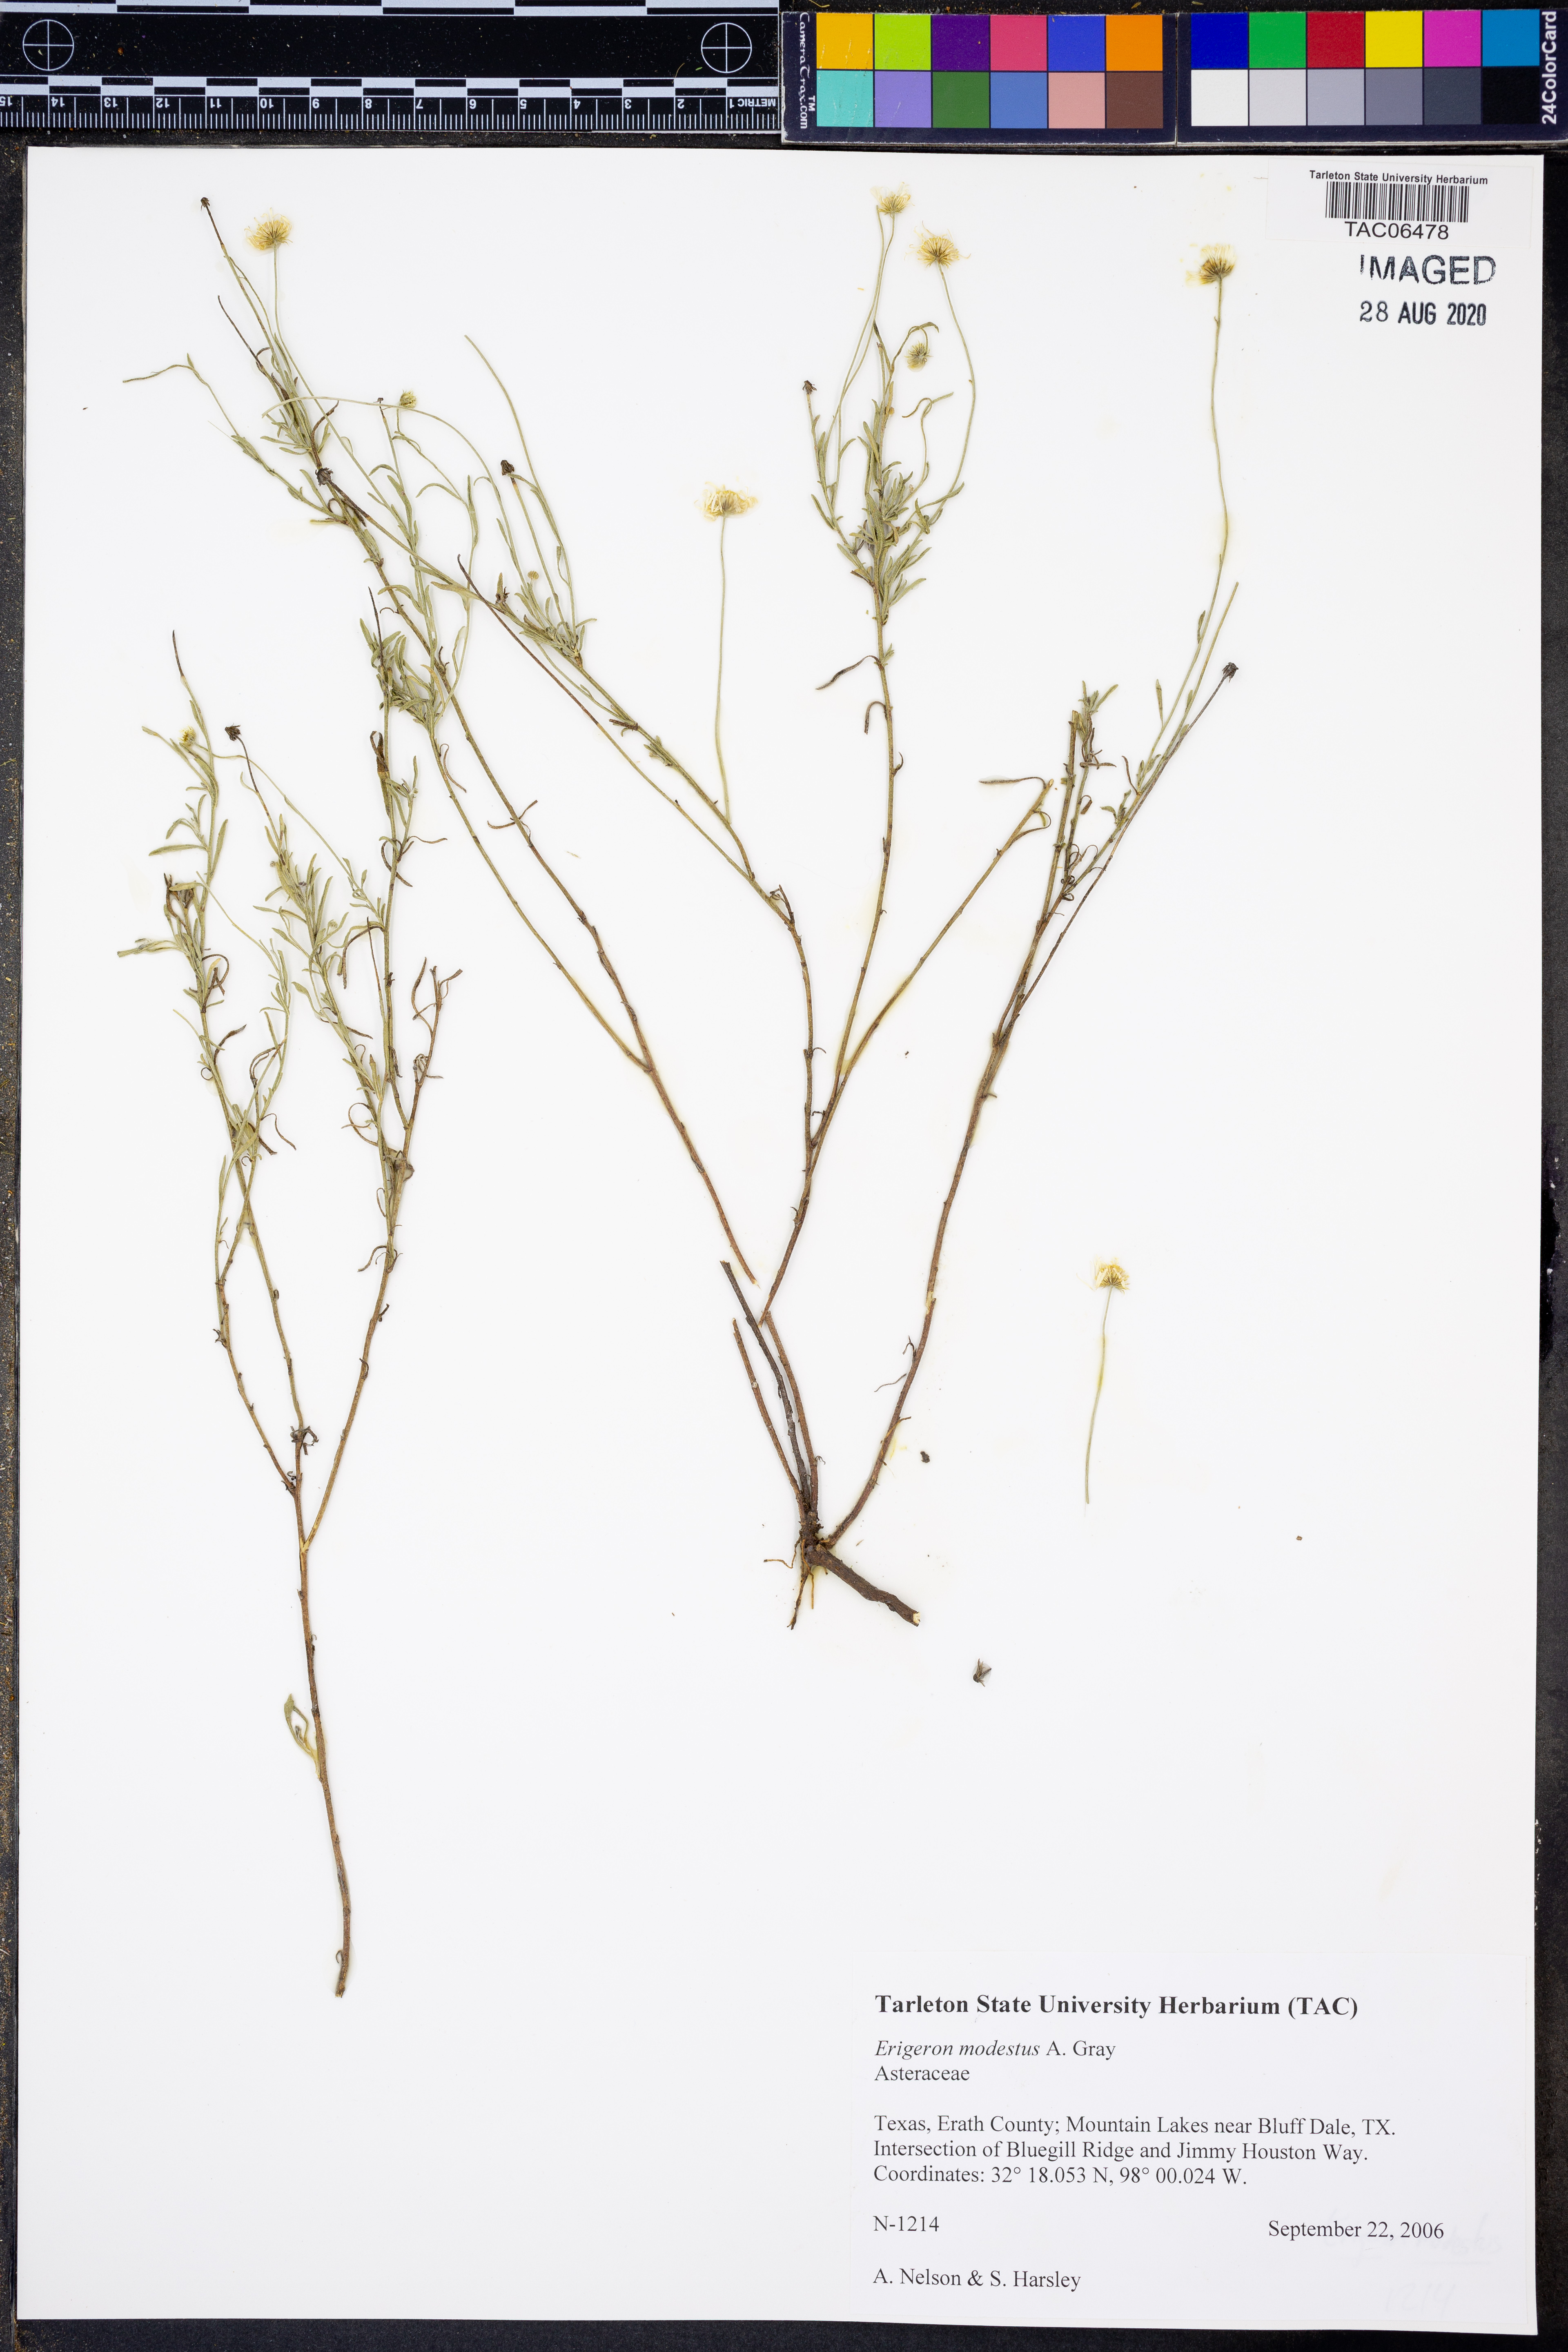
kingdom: Plantae
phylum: Tracheophyta
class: Magnoliopsida
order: Asterales
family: Asteraceae
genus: Erigeron
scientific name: Erigeron modestus
